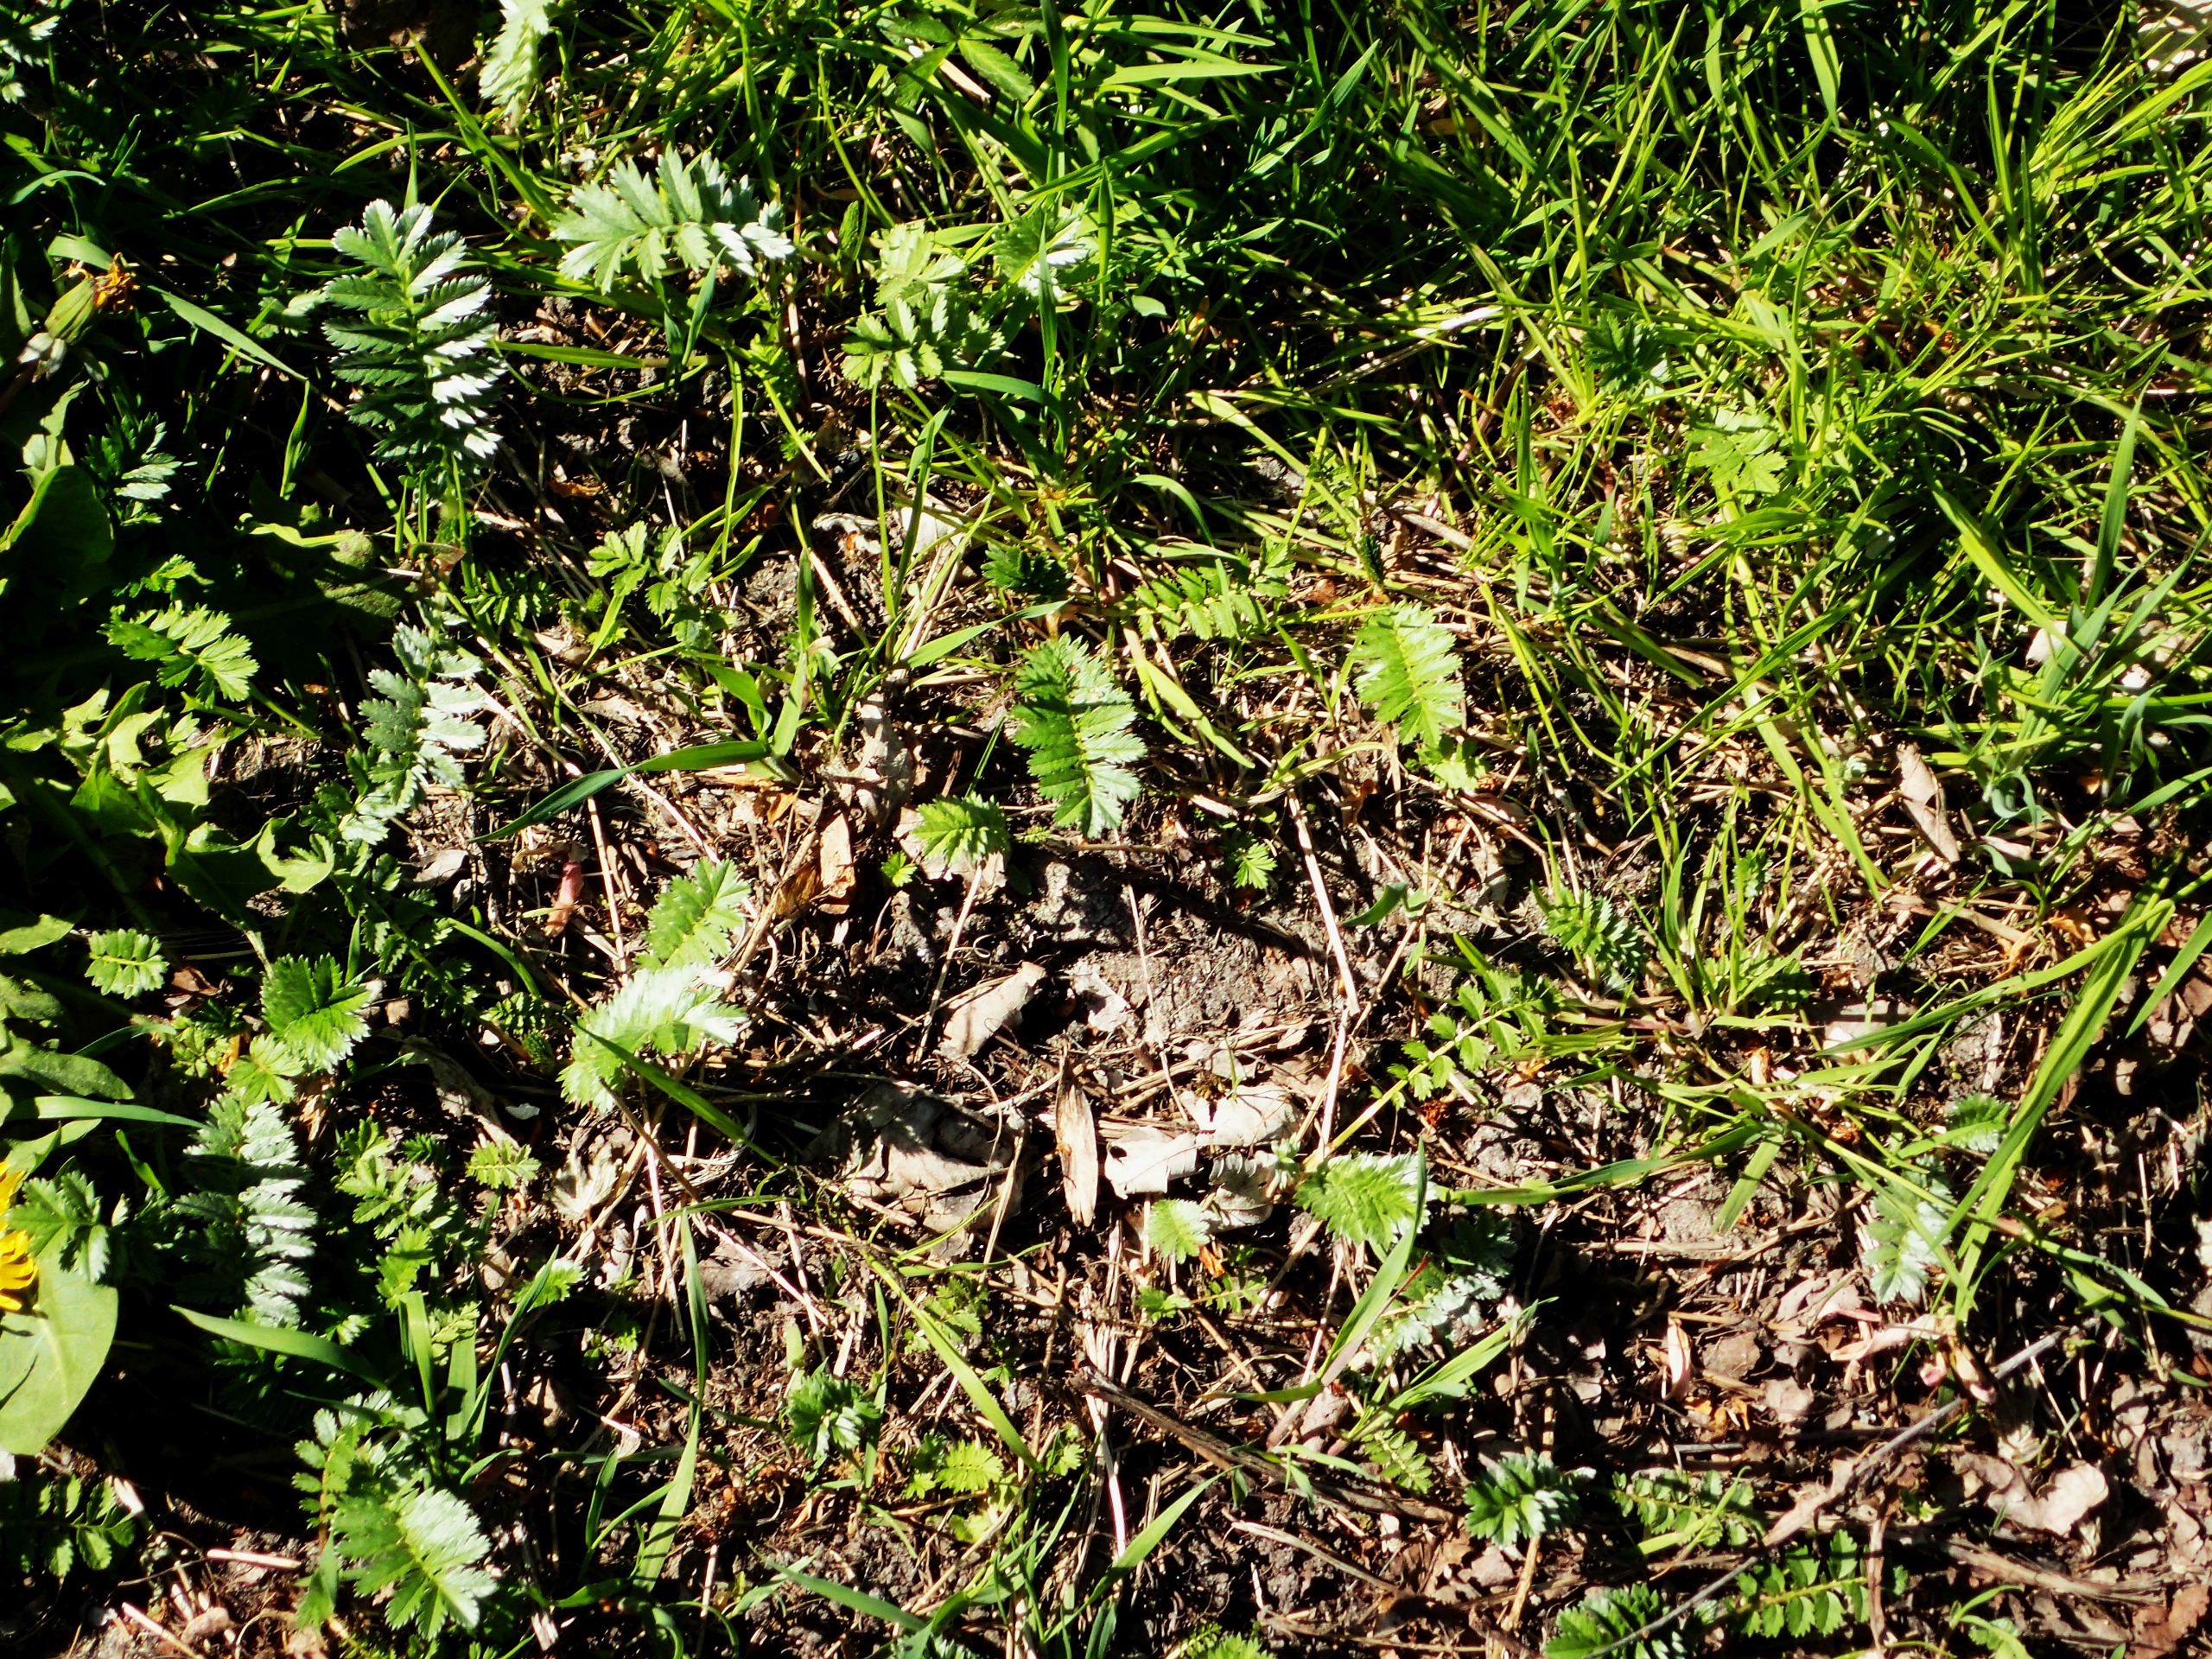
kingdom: Plantae
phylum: Tracheophyta
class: Magnoliopsida
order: Rosales
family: Rosaceae
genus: Argentina
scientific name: Argentina anserina
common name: Gåsepotentil
